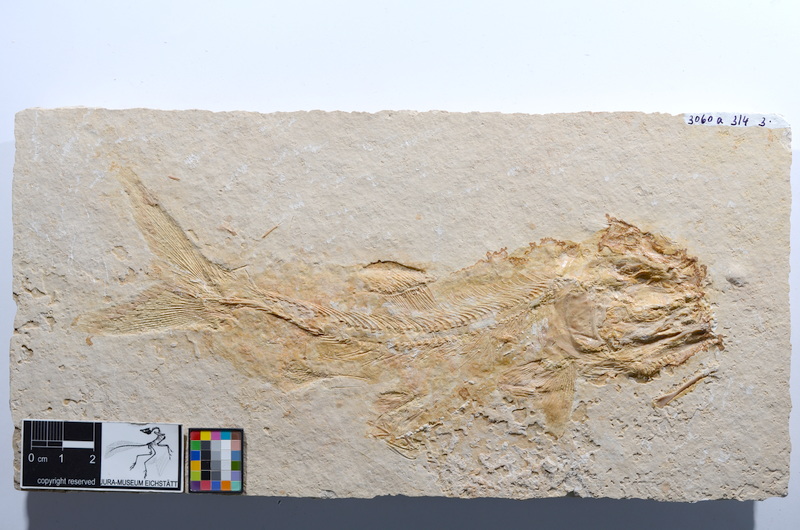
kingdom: Animalia
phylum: Chordata
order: Amiiformes
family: Caturidae
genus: Caturus
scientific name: Caturus
